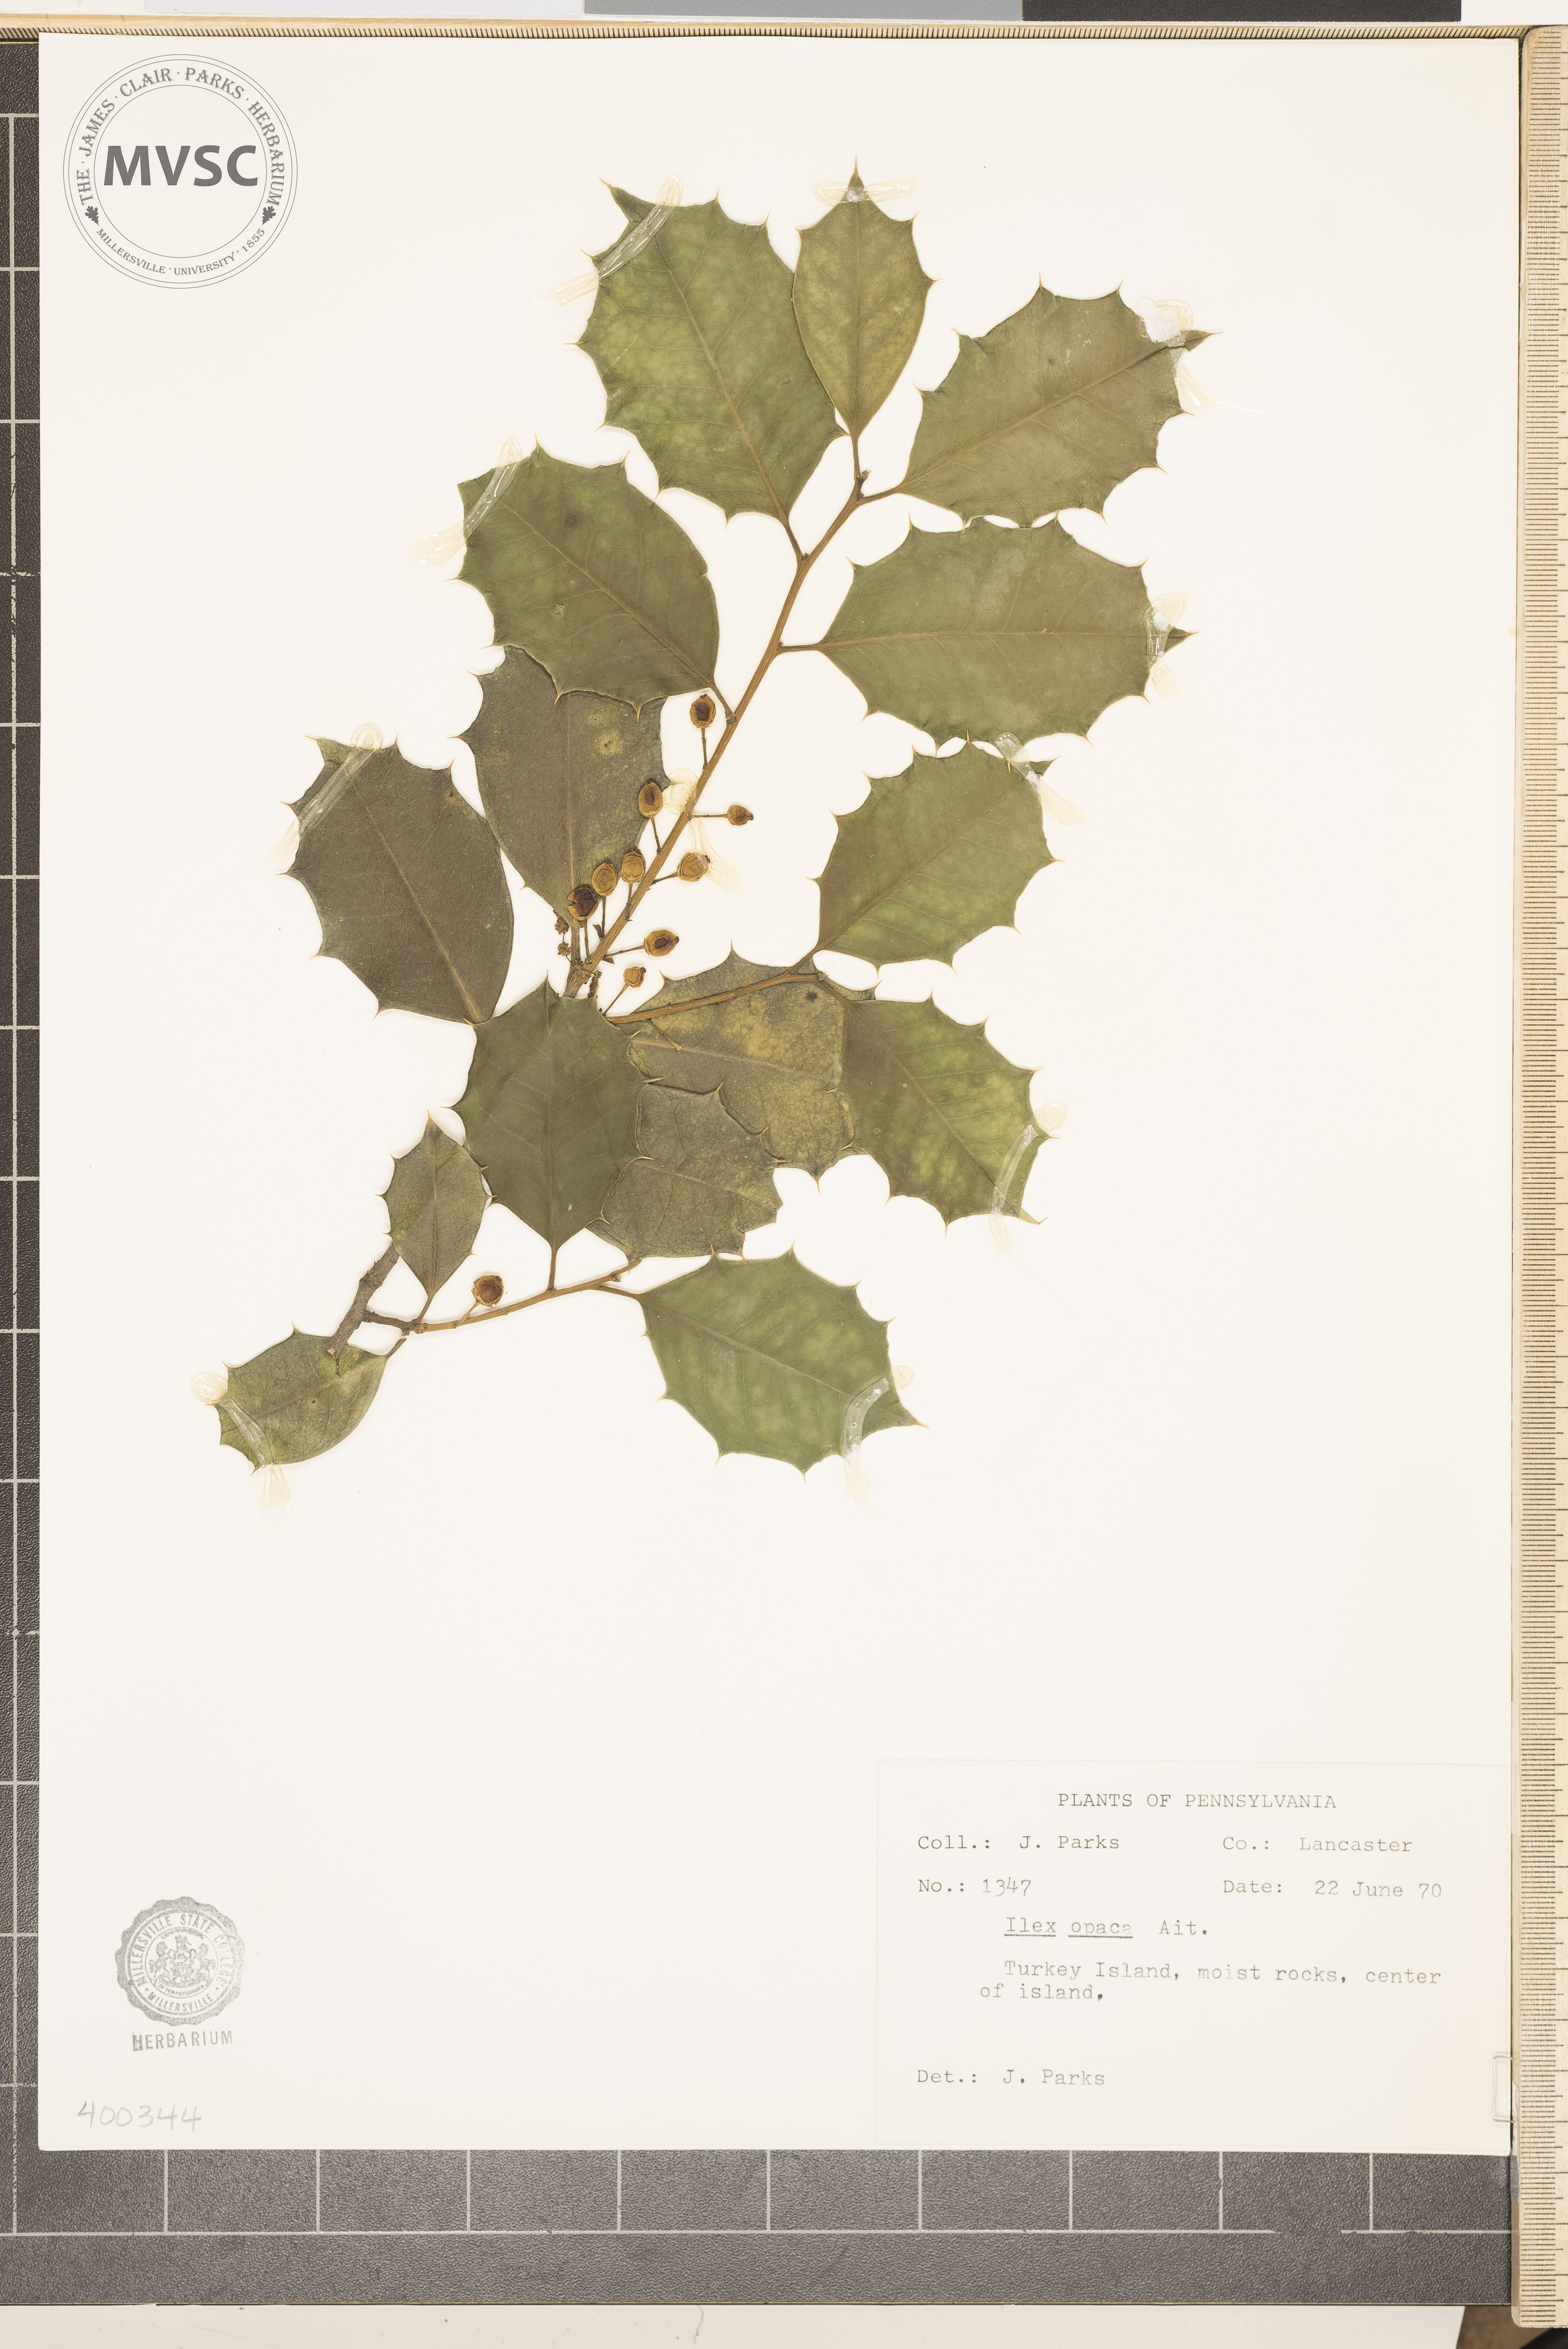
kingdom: Plantae
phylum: Tracheophyta
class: Magnoliopsida
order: Aquifoliales
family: Aquifoliaceae
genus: Ilex
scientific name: Ilex opaca
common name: American holly
